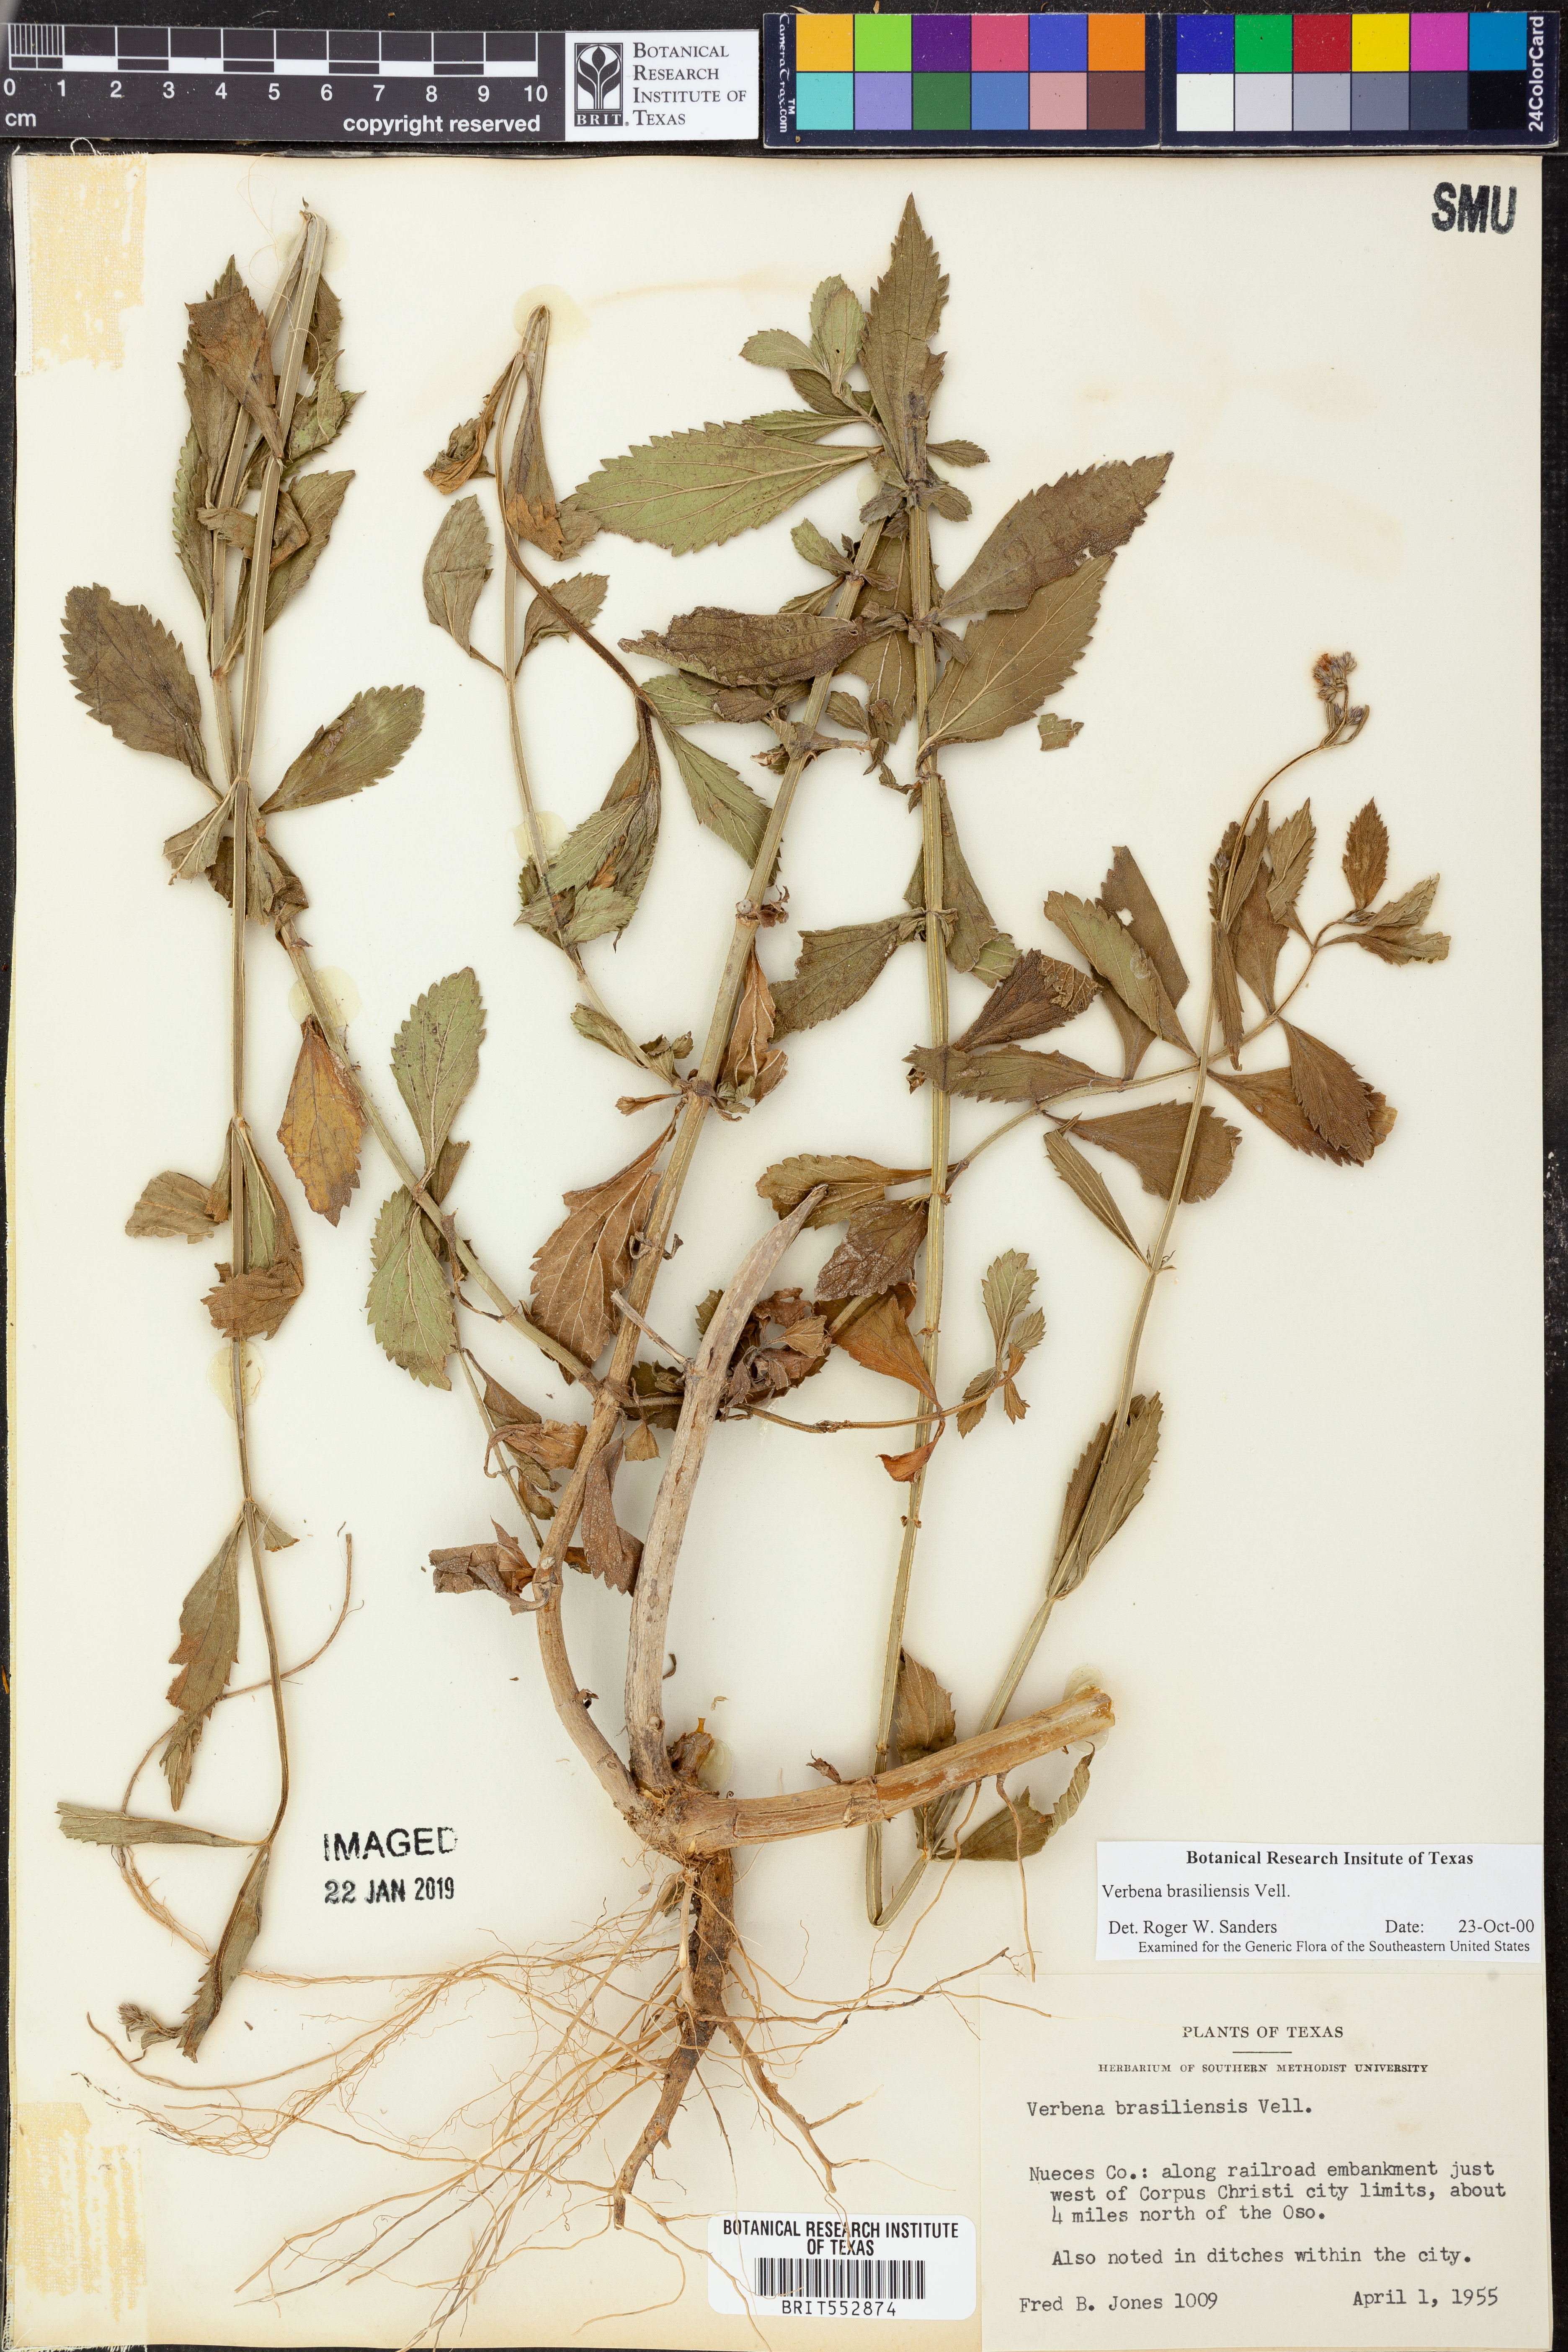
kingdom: Plantae
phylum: Tracheophyta
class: Magnoliopsida
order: Lamiales
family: Verbenaceae
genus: Verbena
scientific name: Verbena brasiliensis
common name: Brazilian vervain
